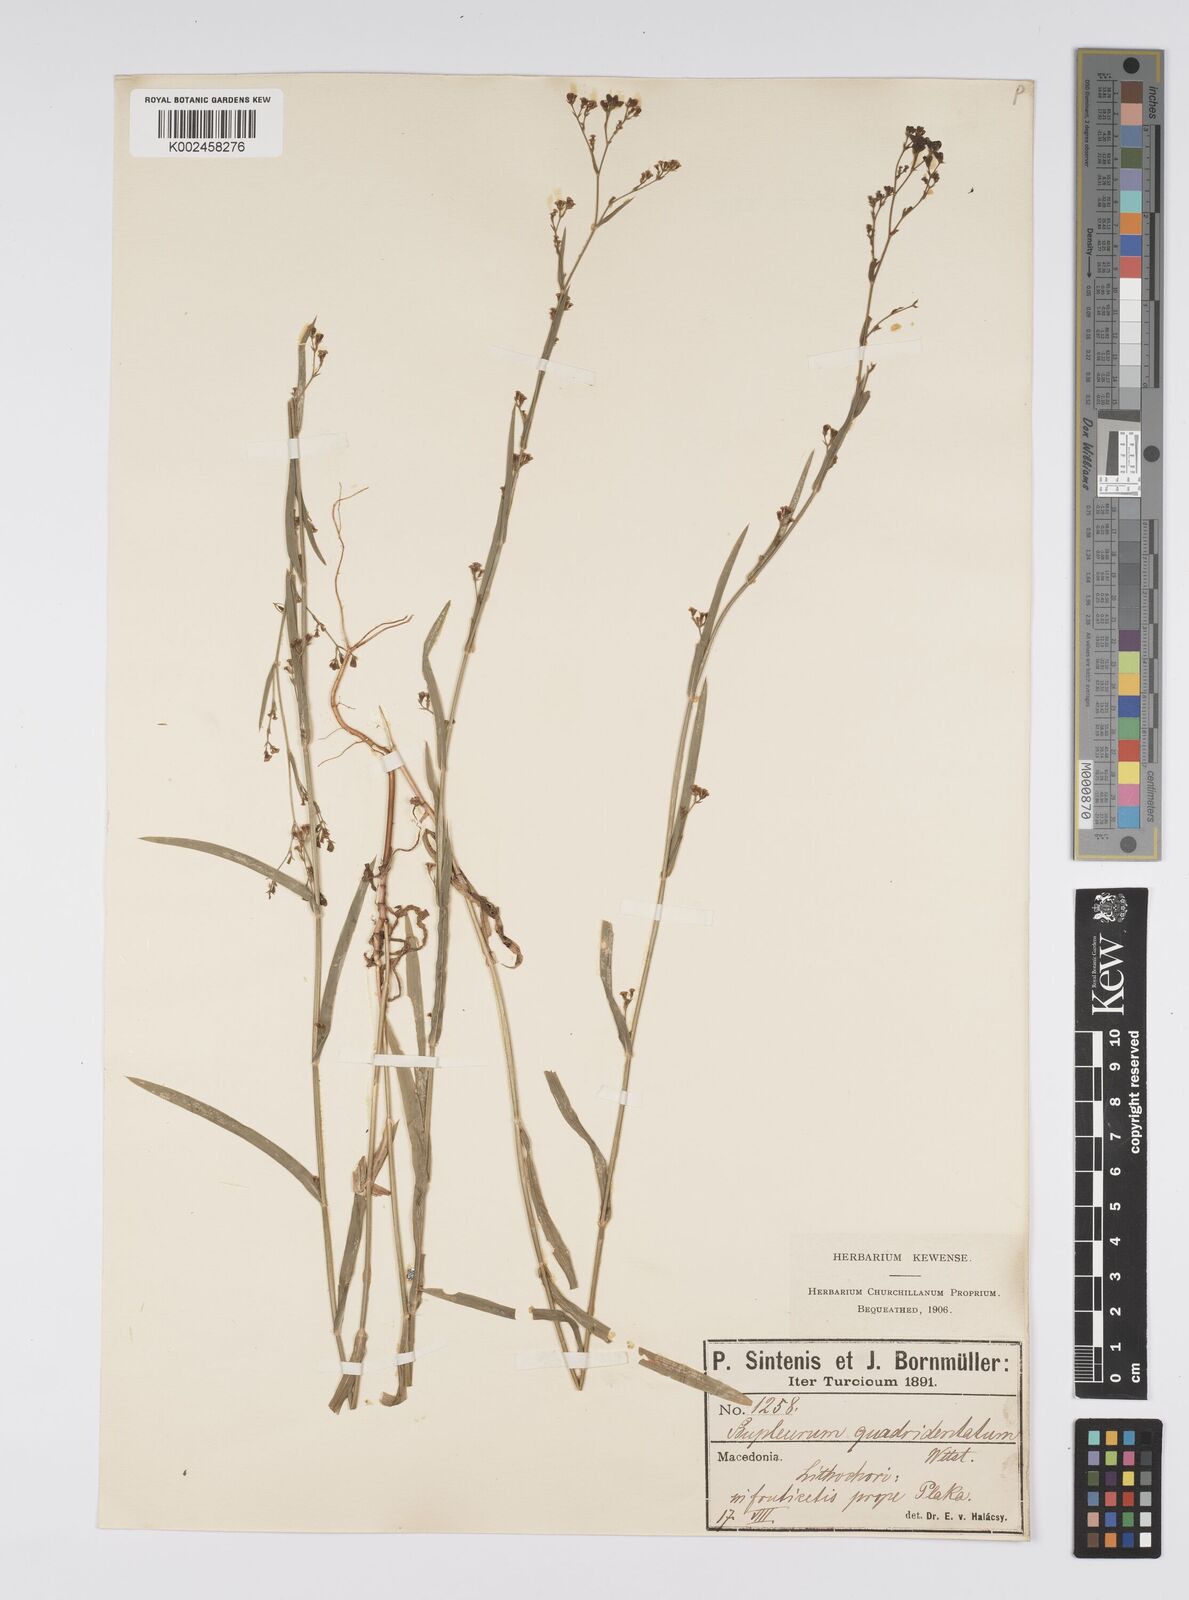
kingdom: Plantae
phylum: Tracheophyta
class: Magnoliopsida
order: Apiales
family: Apiaceae
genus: Bupleurum
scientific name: Bupleurum praealtum
